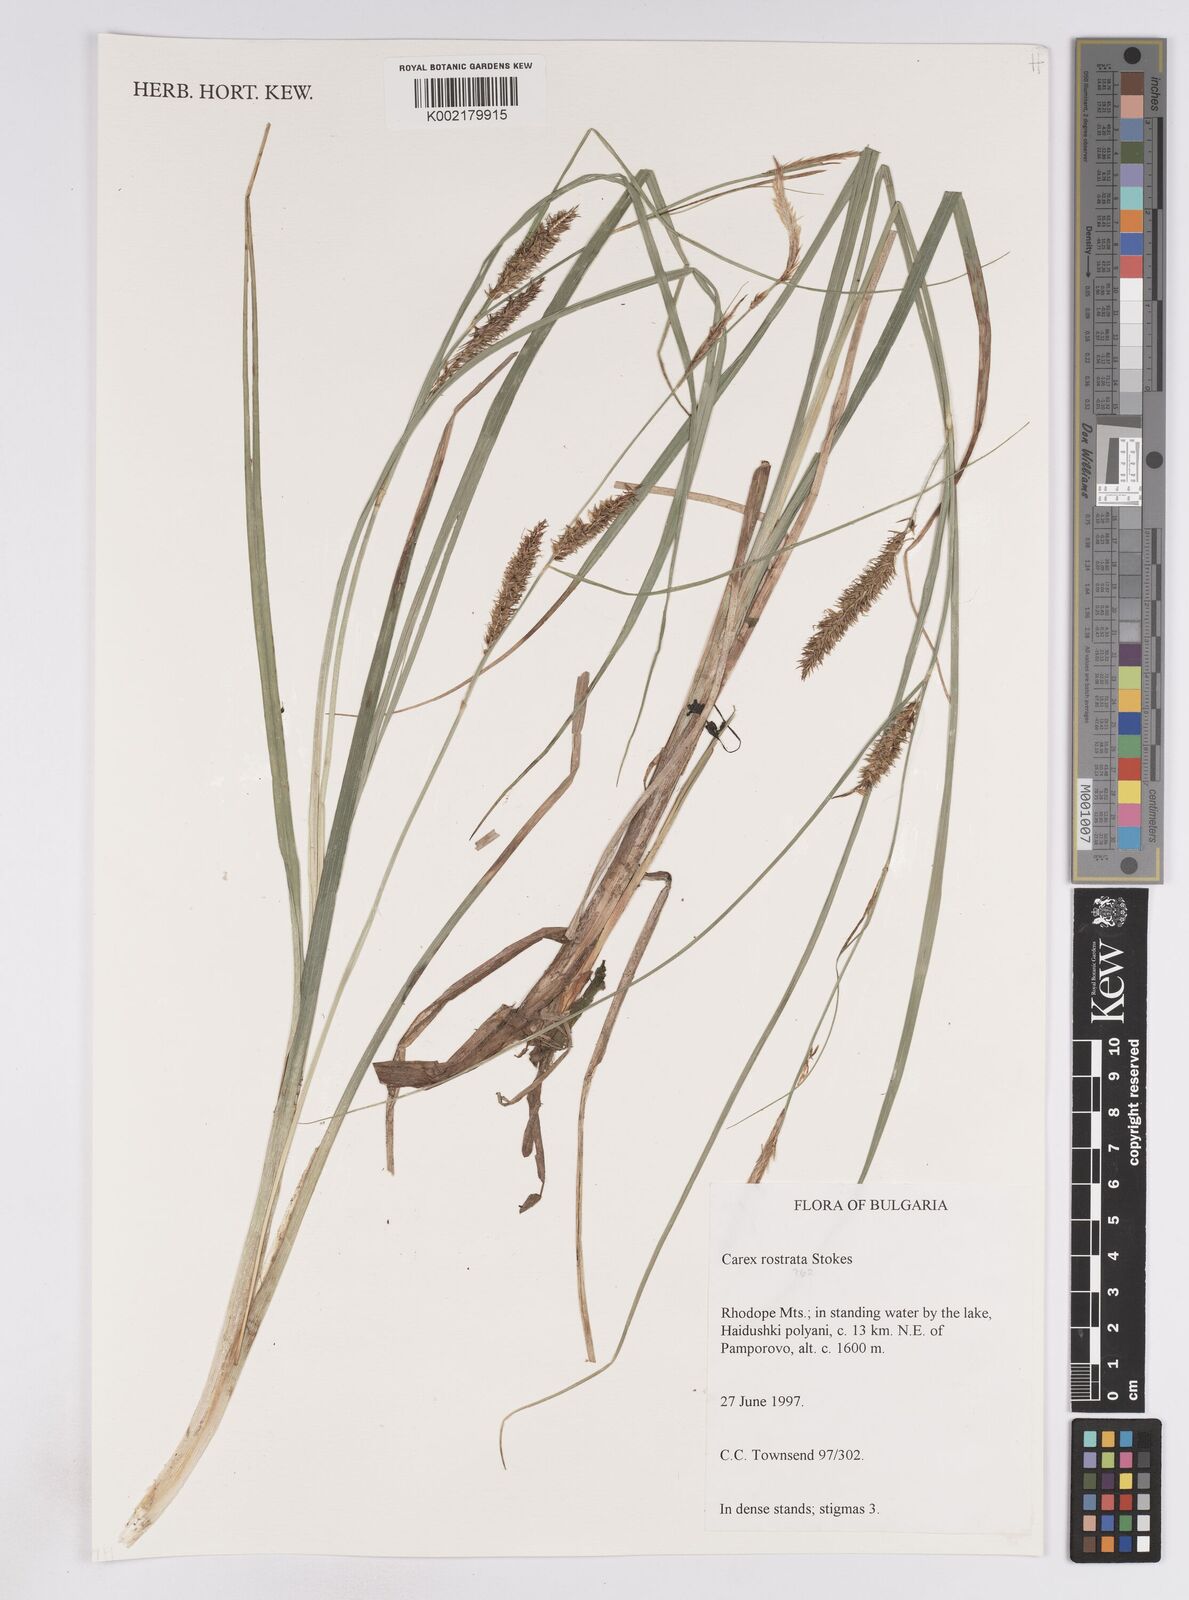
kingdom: Plantae
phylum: Tracheophyta
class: Liliopsida
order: Poales
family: Cyperaceae
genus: Carex
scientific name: Carex rostrata
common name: Bottle sedge
